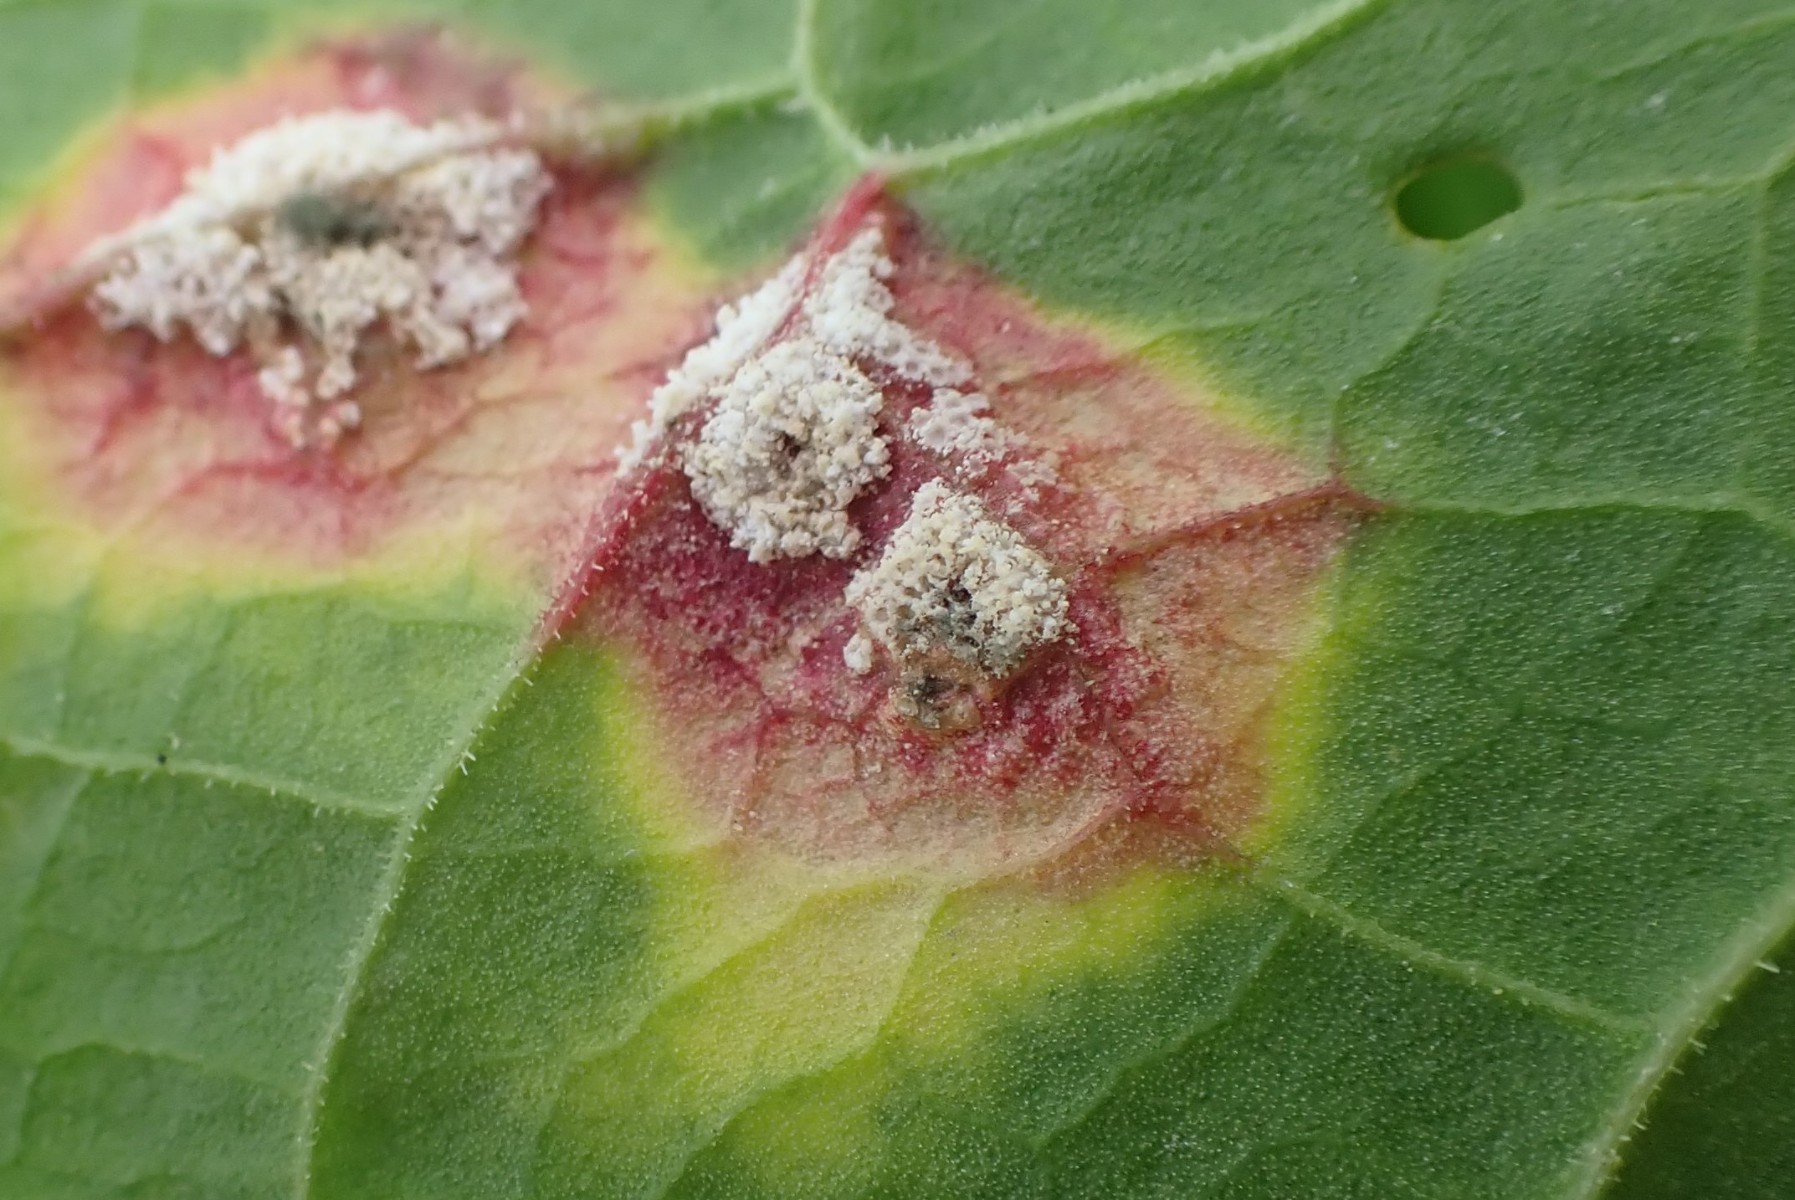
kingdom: Fungi
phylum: Basidiomycota
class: Pucciniomycetes
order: Pucciniales
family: Pucciniaceae
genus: Puccinia
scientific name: Puccinia phragmitis
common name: tagrør-tvecellerust
